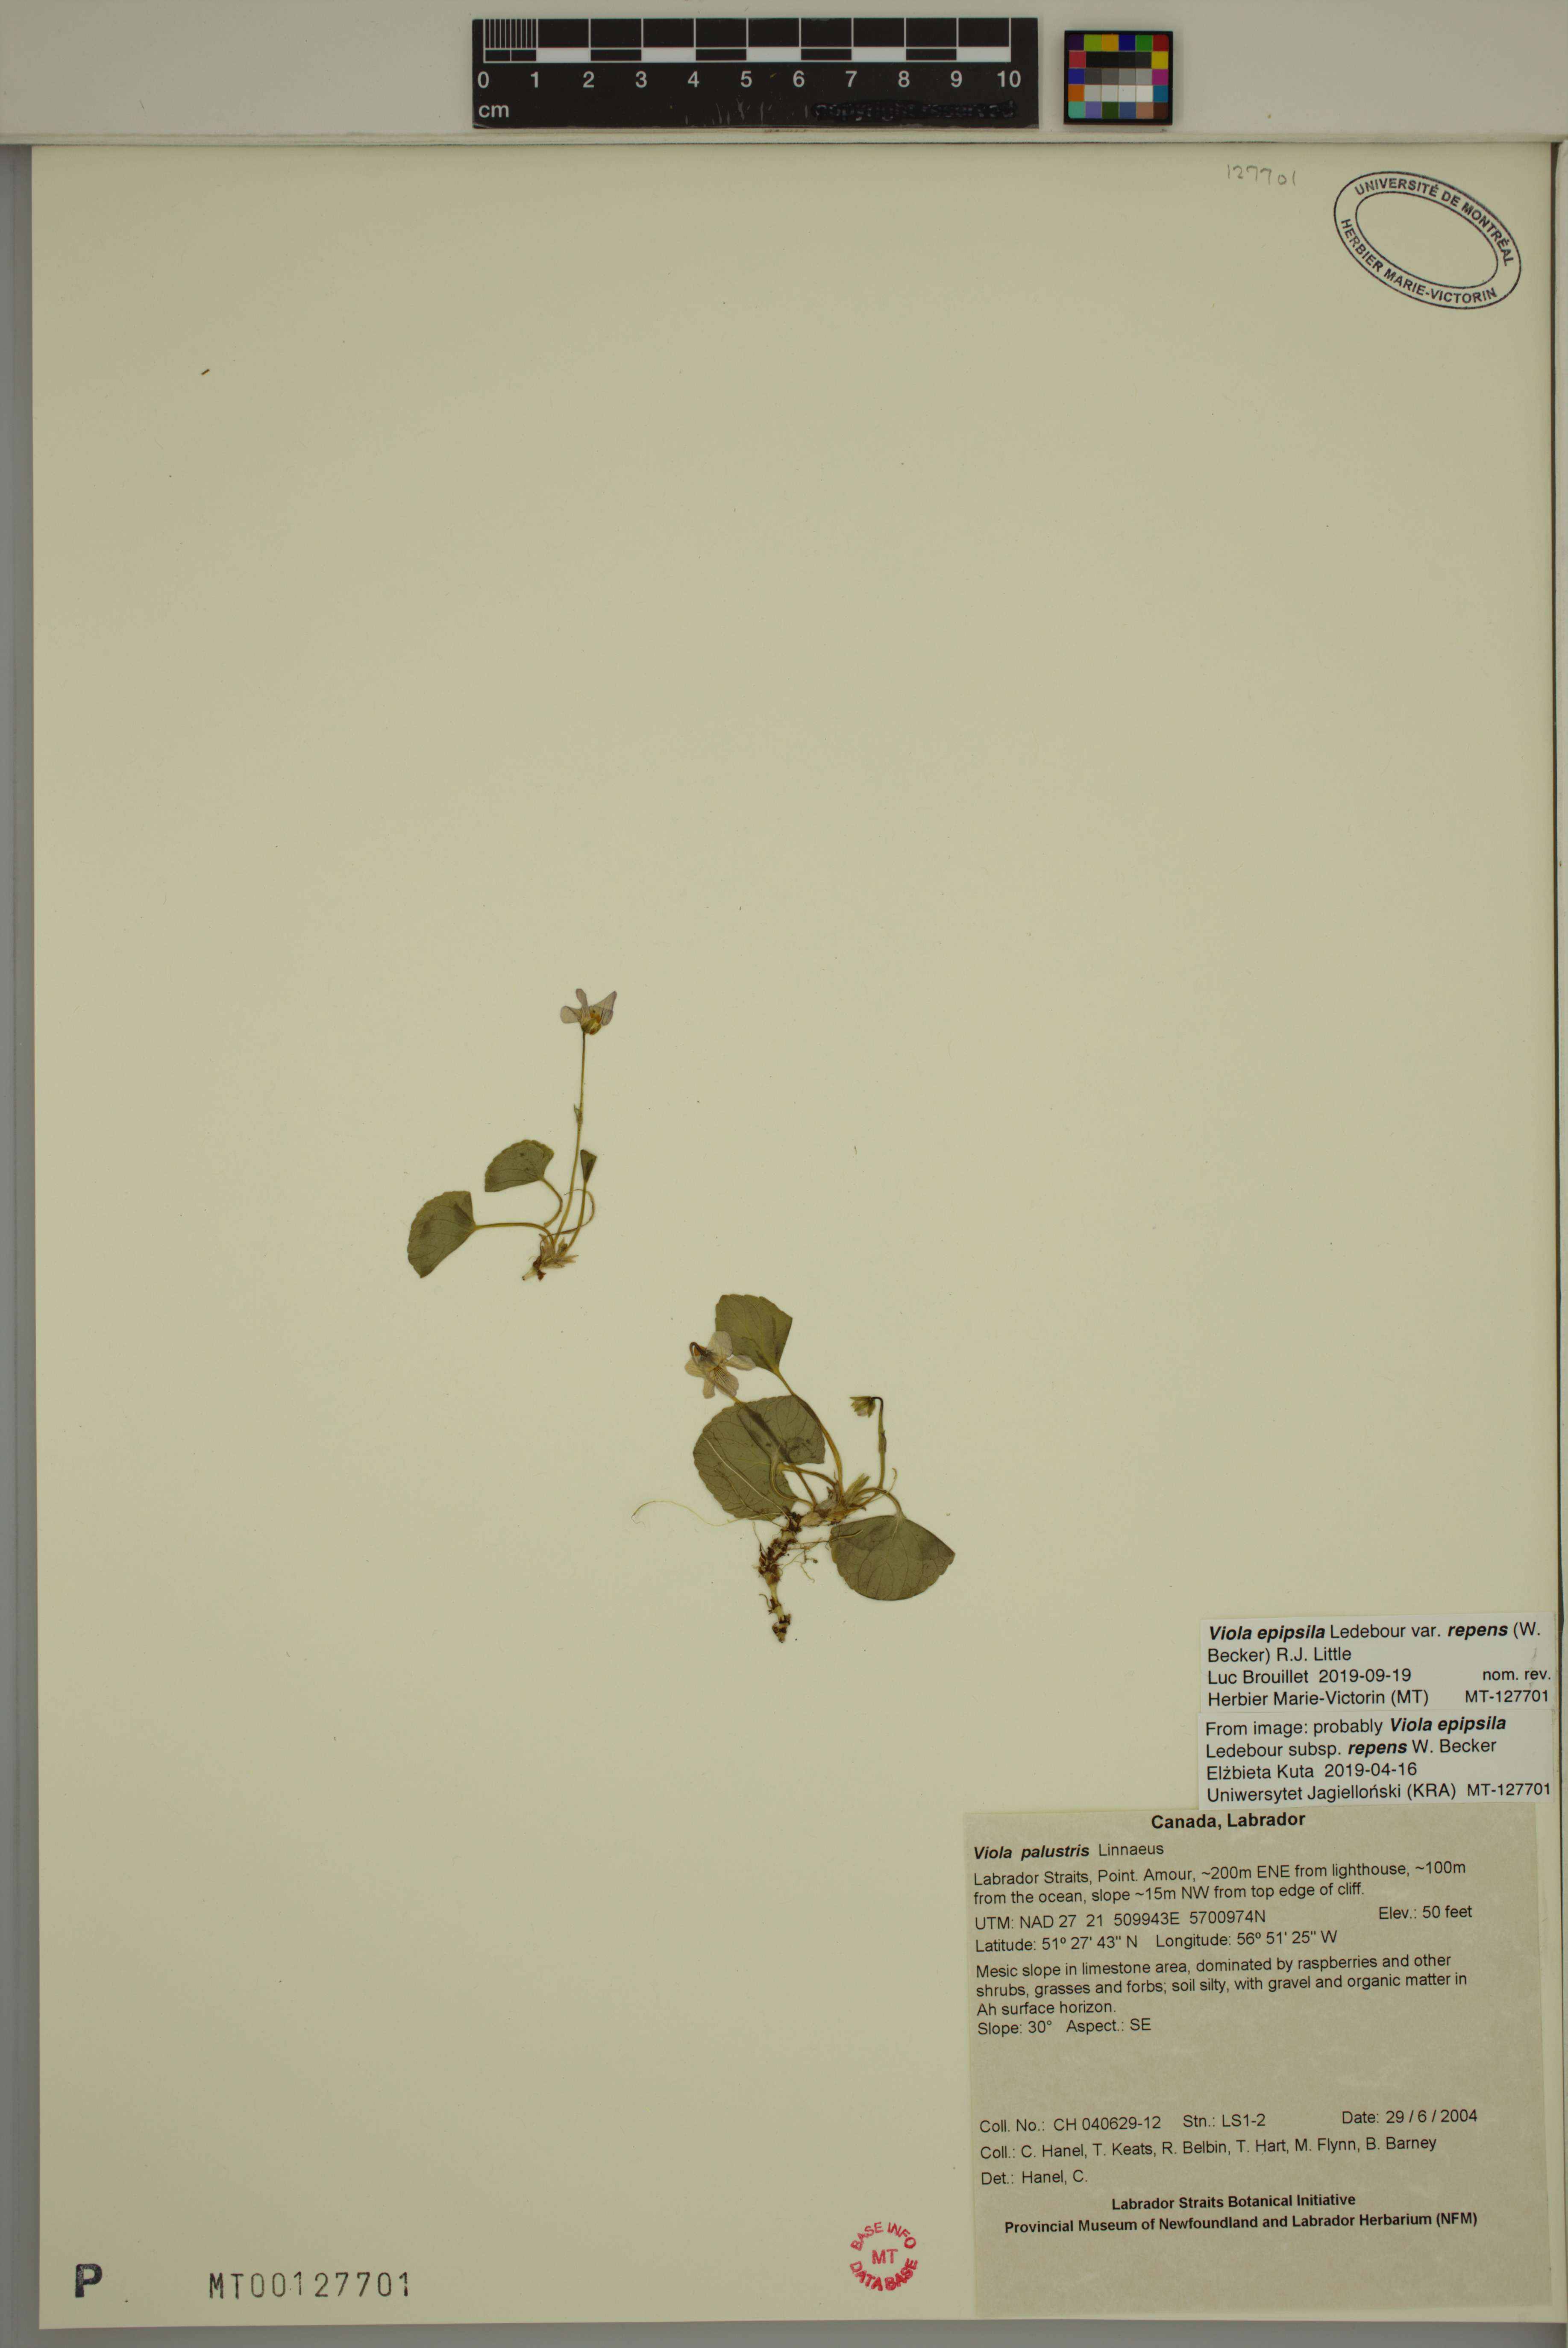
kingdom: Plantae
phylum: Tracheophyta
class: Magnoliopsida
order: Malpighiales
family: Violaceae
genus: Viola
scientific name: Viola palustris
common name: Marsh violet
